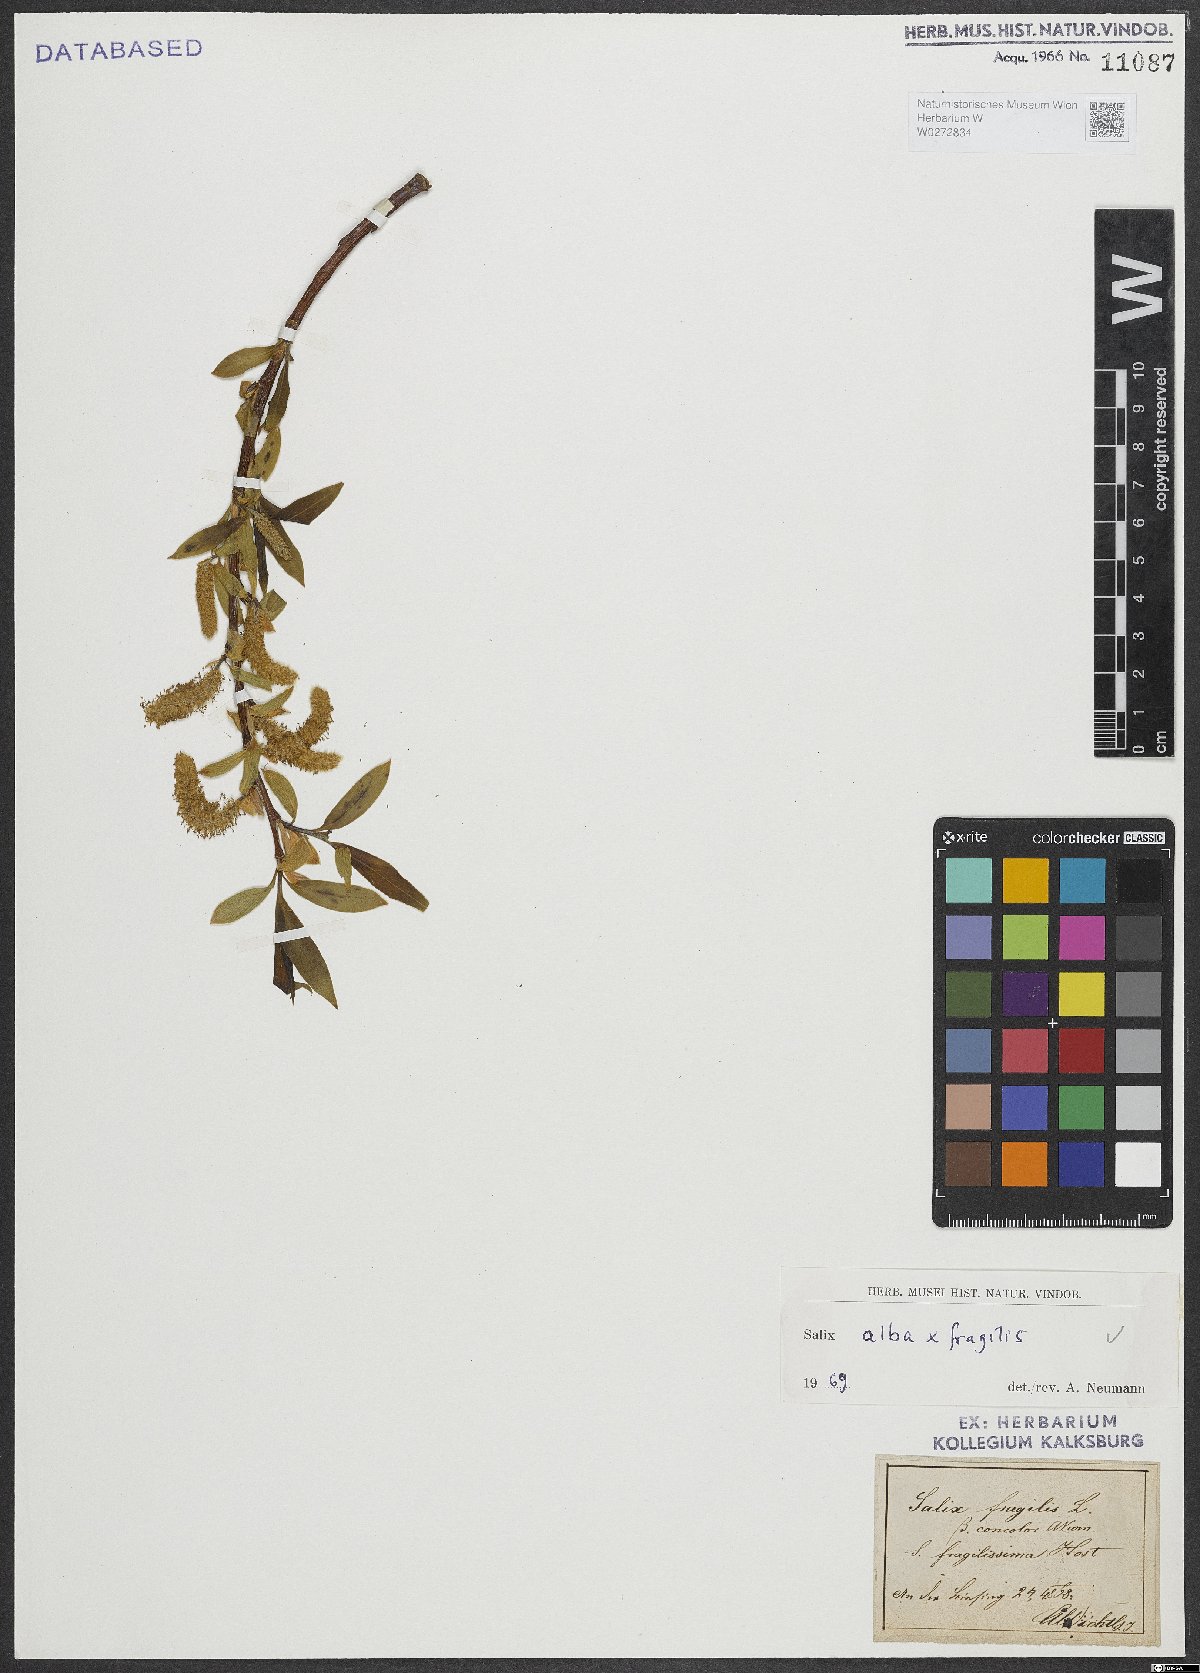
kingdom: Plantae
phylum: Tracheophyta
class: Magnoliopsida
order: Malpighiales
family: Salicaceae
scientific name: Salicaceae
